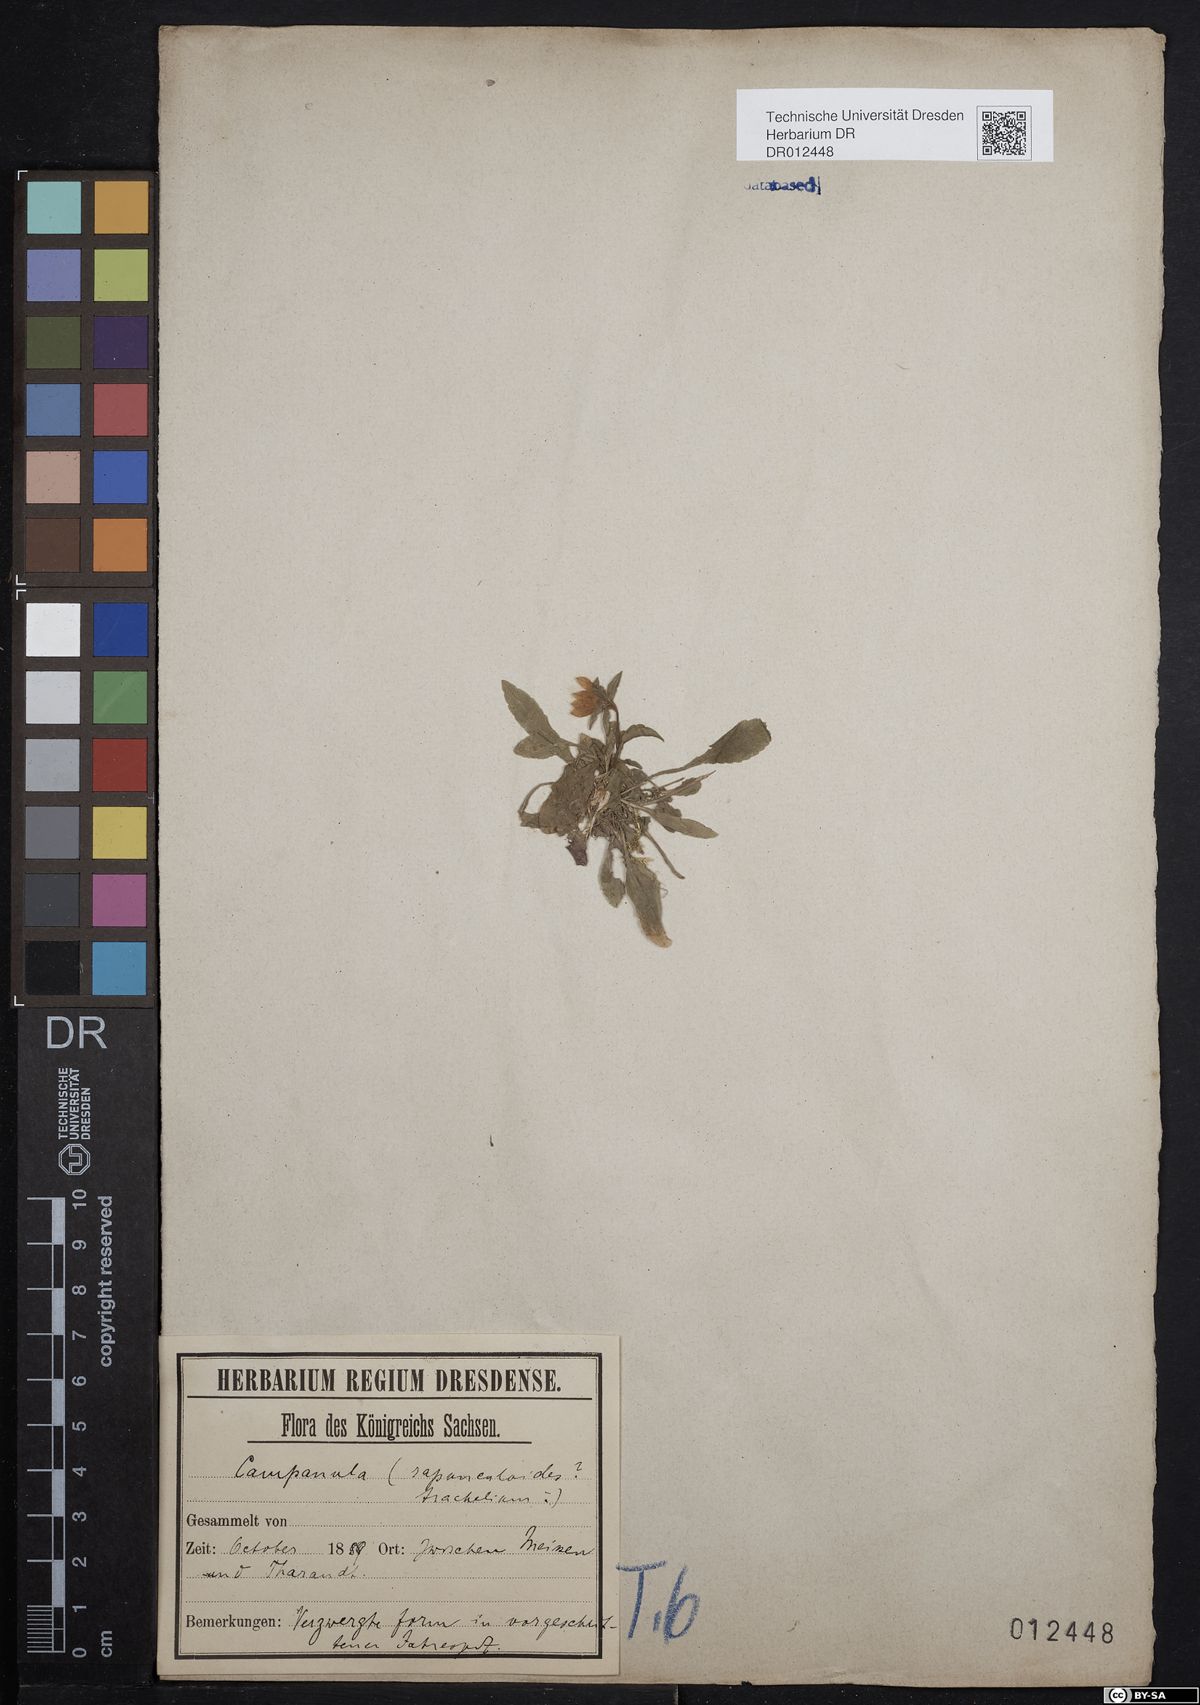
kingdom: Plantae
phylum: Tracheophyta
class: Magnoliopsida
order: Asterales
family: Campanulaceae
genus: Campanula
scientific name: Campanula rapunculoides
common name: Creeping bellflower
